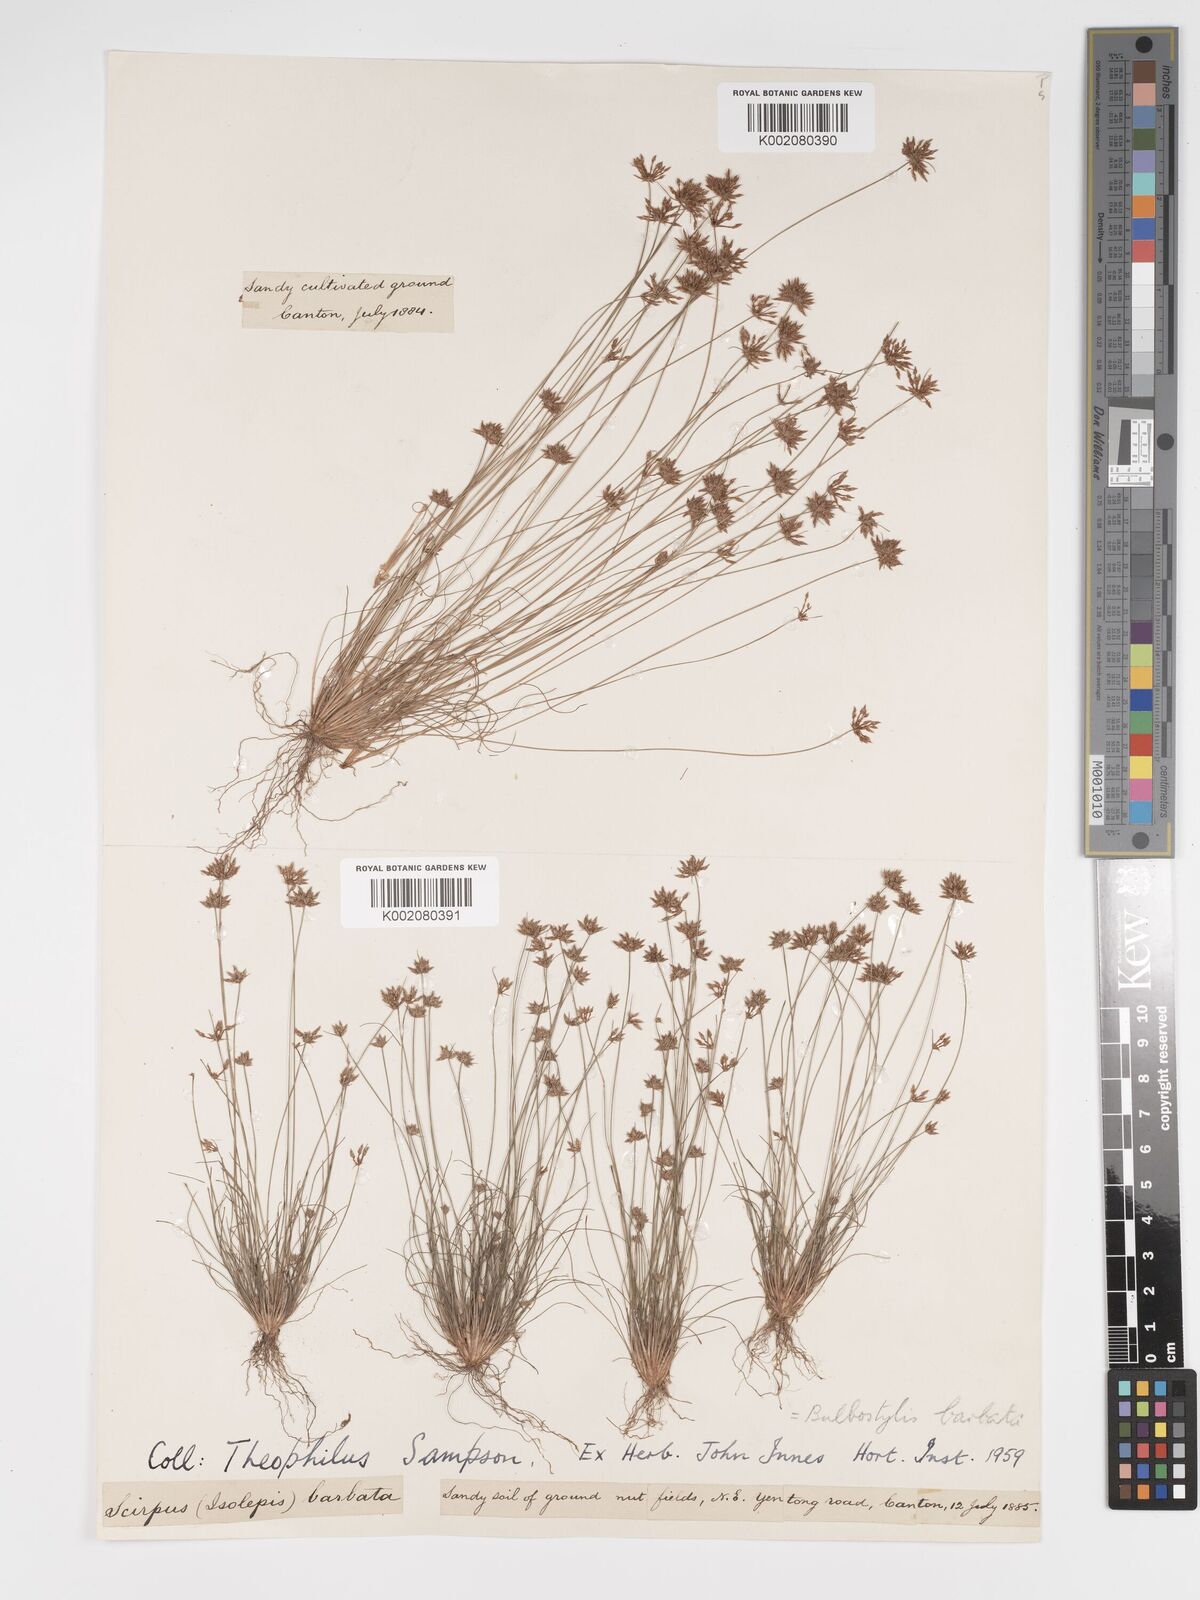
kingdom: Plantae
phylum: Tracheophyta
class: Liliopsida
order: Poales
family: Cyperaceae
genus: Bulbostylis
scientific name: Bulbostylis barbata
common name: Watergrass
